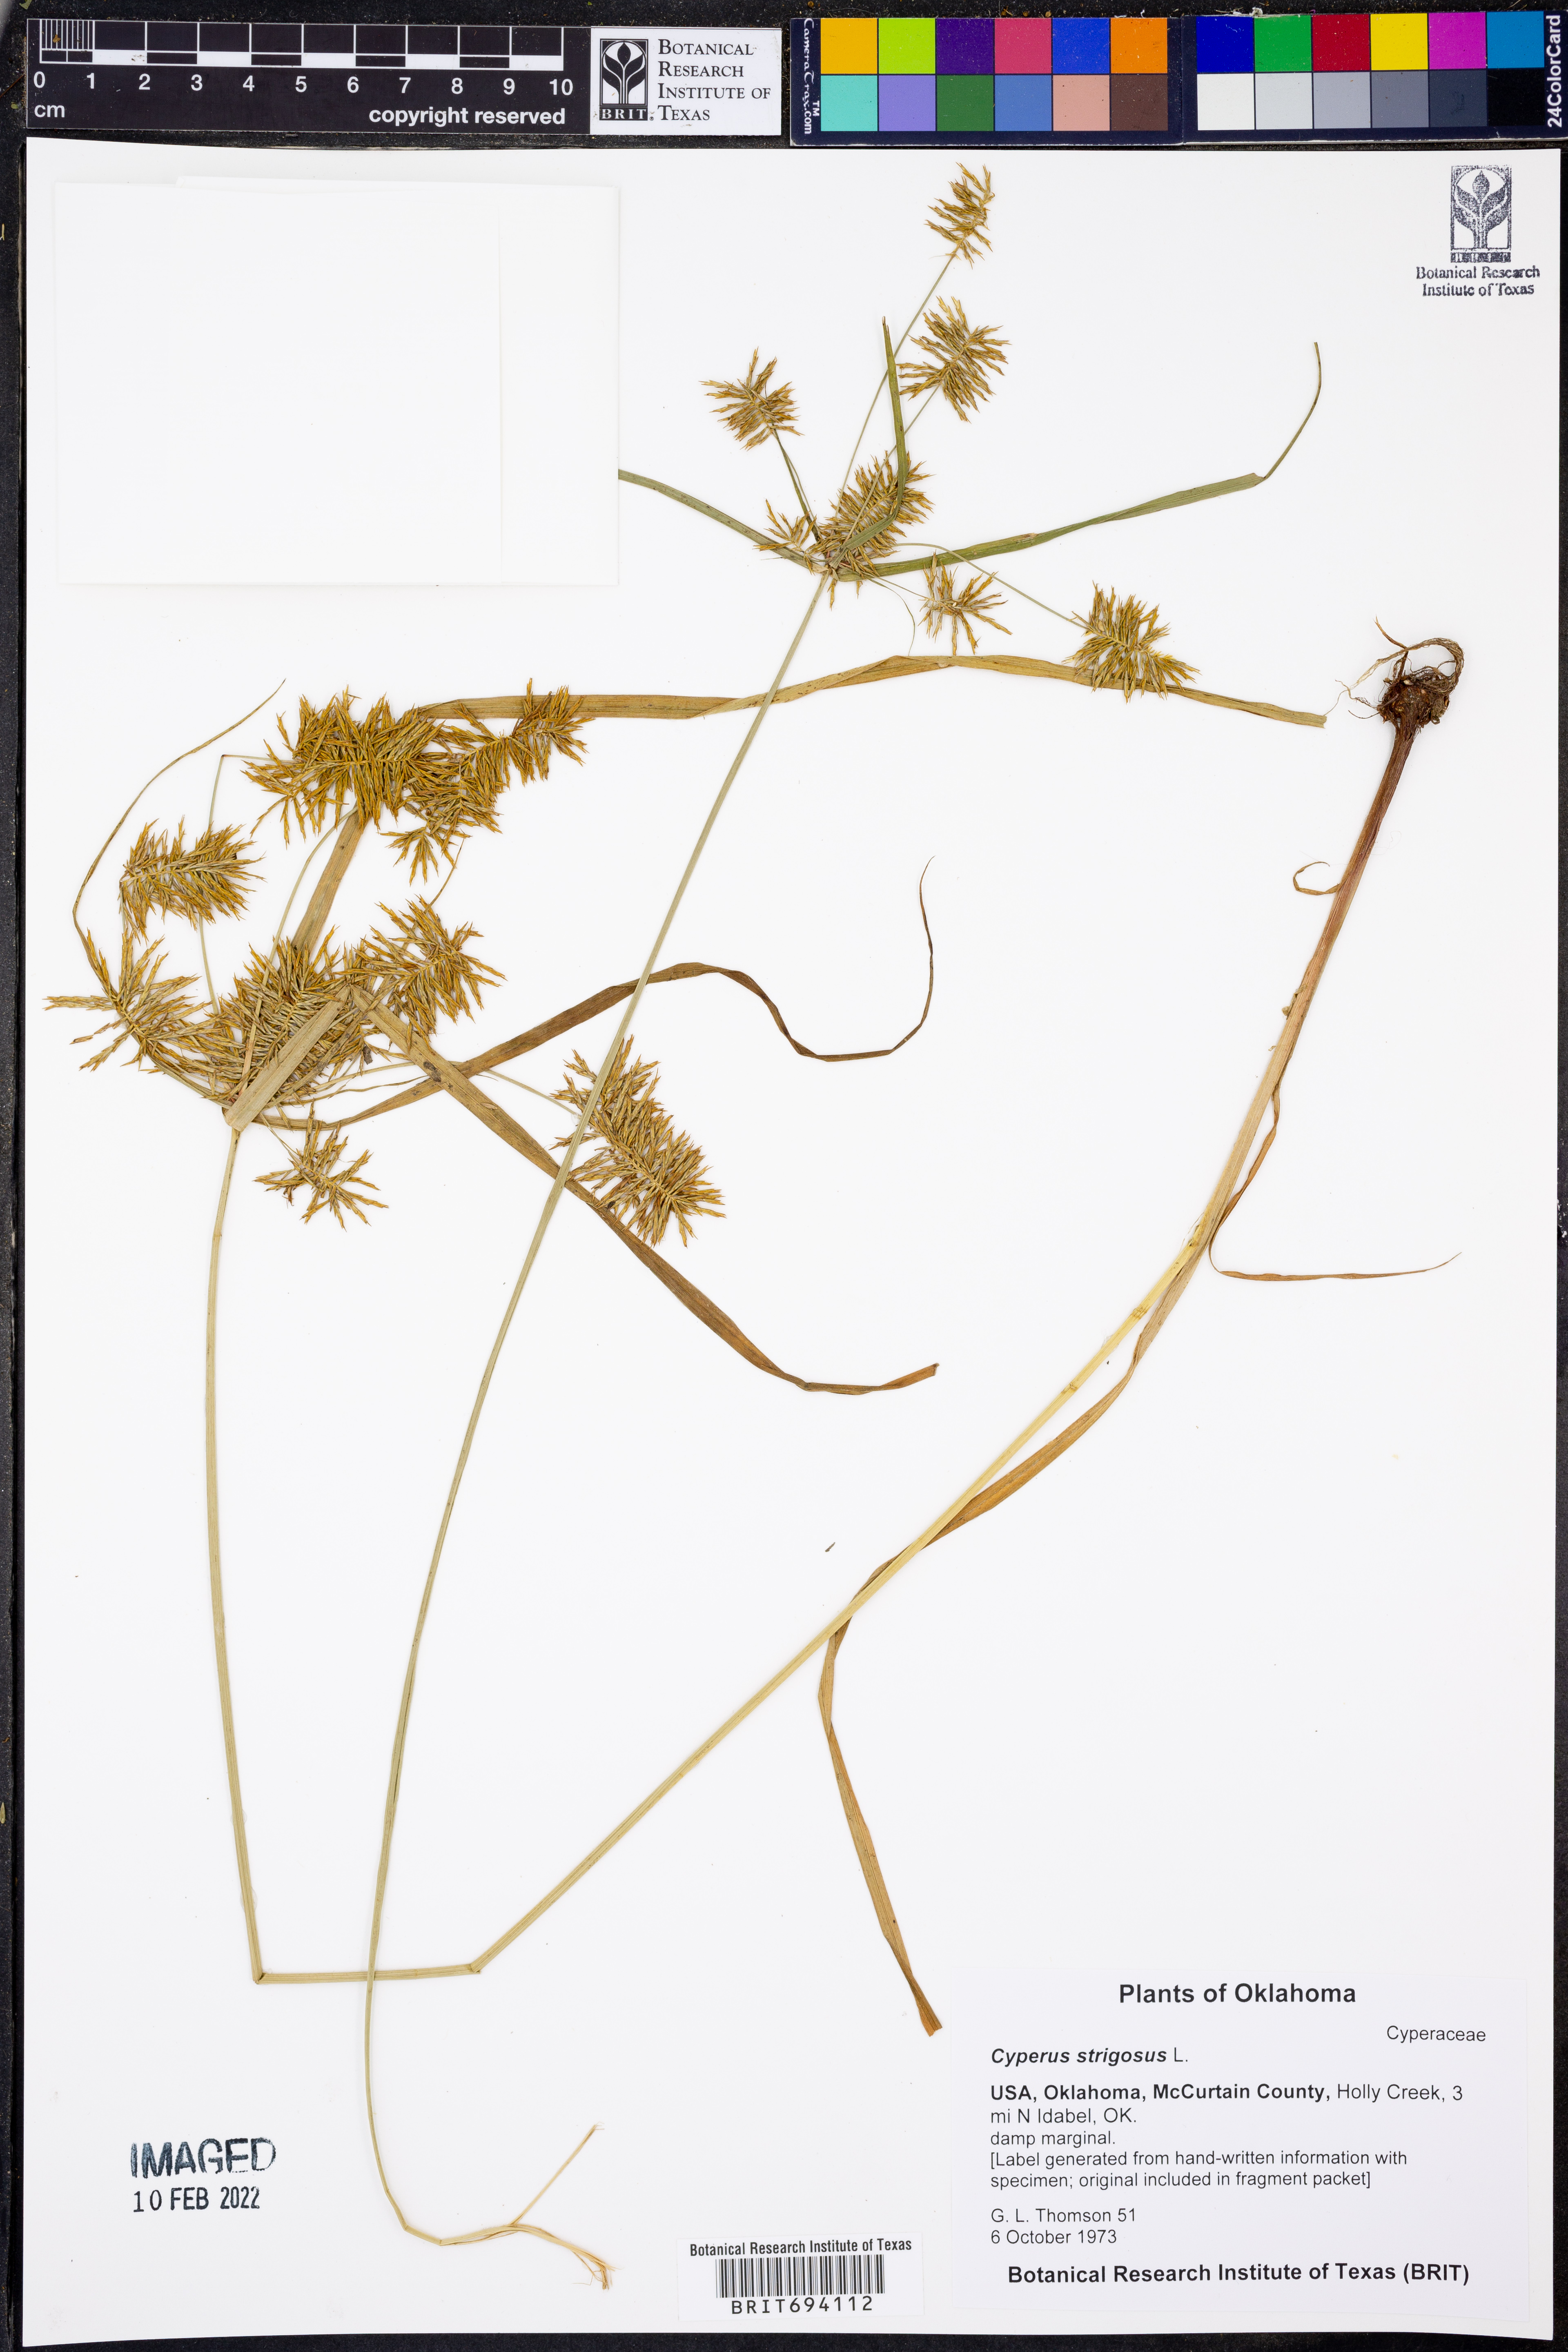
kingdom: Plantae
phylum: Tracheophyta
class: Liliopsida
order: Poales
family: Cyperaceae
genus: Cyperus
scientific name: Cyperus strigosus
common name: False nutsedge
